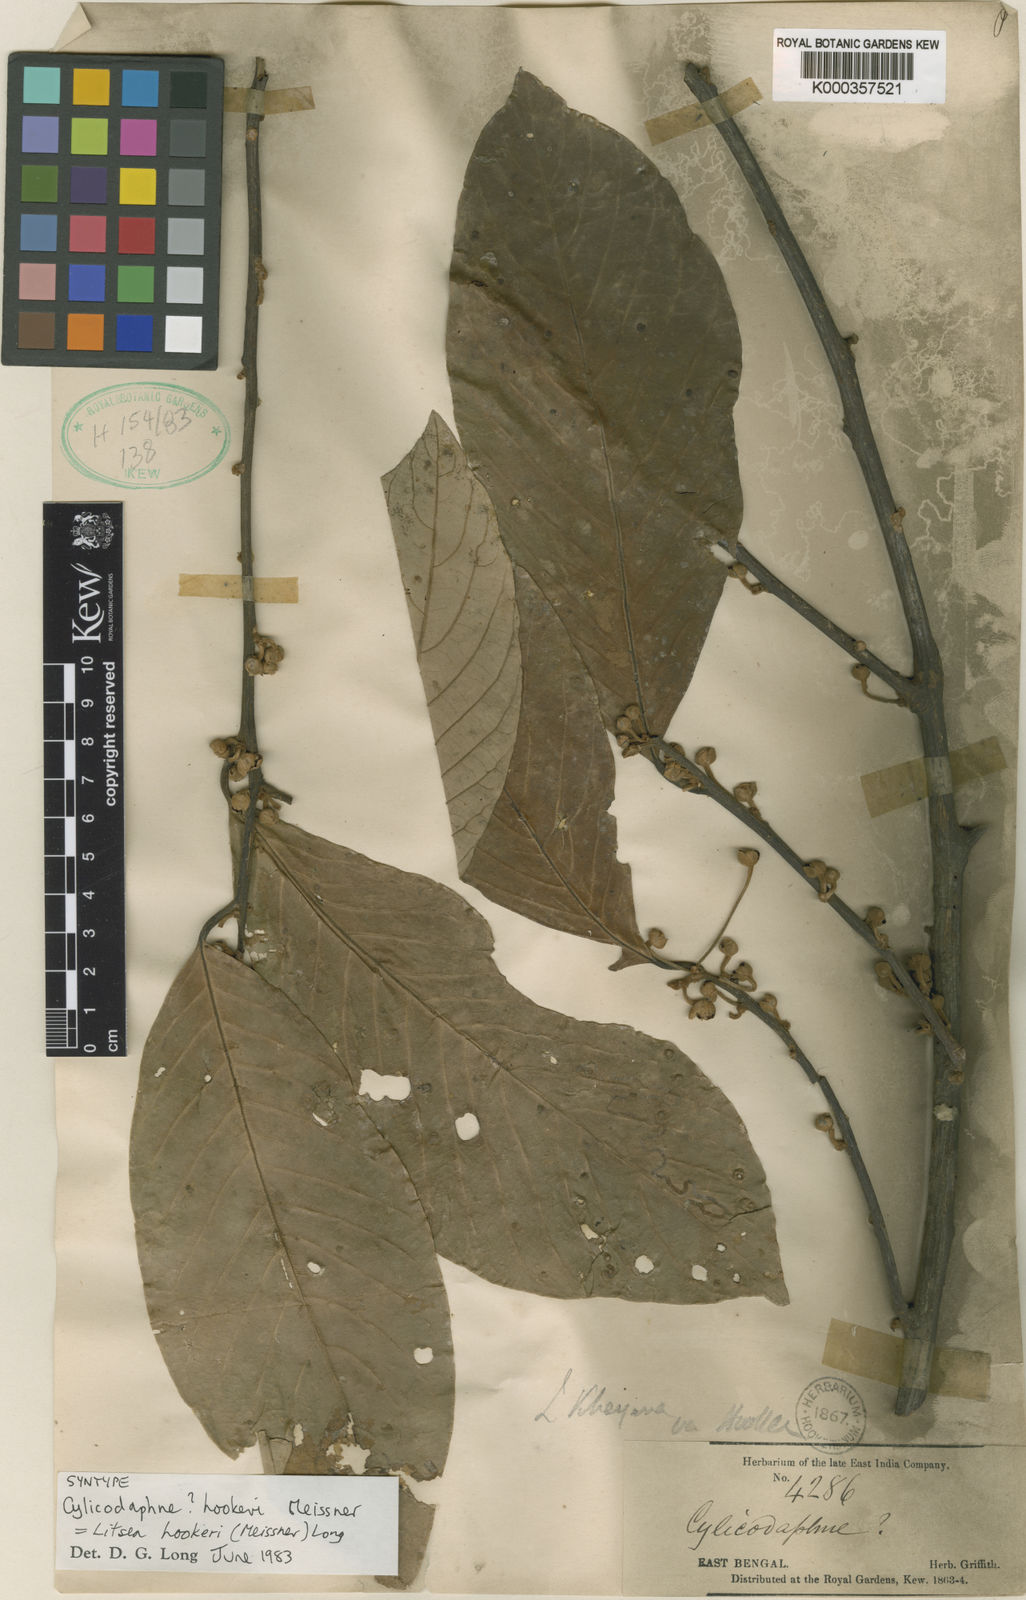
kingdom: Plantae
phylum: Tracheophyta
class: Magnoliopsida
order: Laurales
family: Lauraceae
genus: Litsea
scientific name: Litsea khasyana
